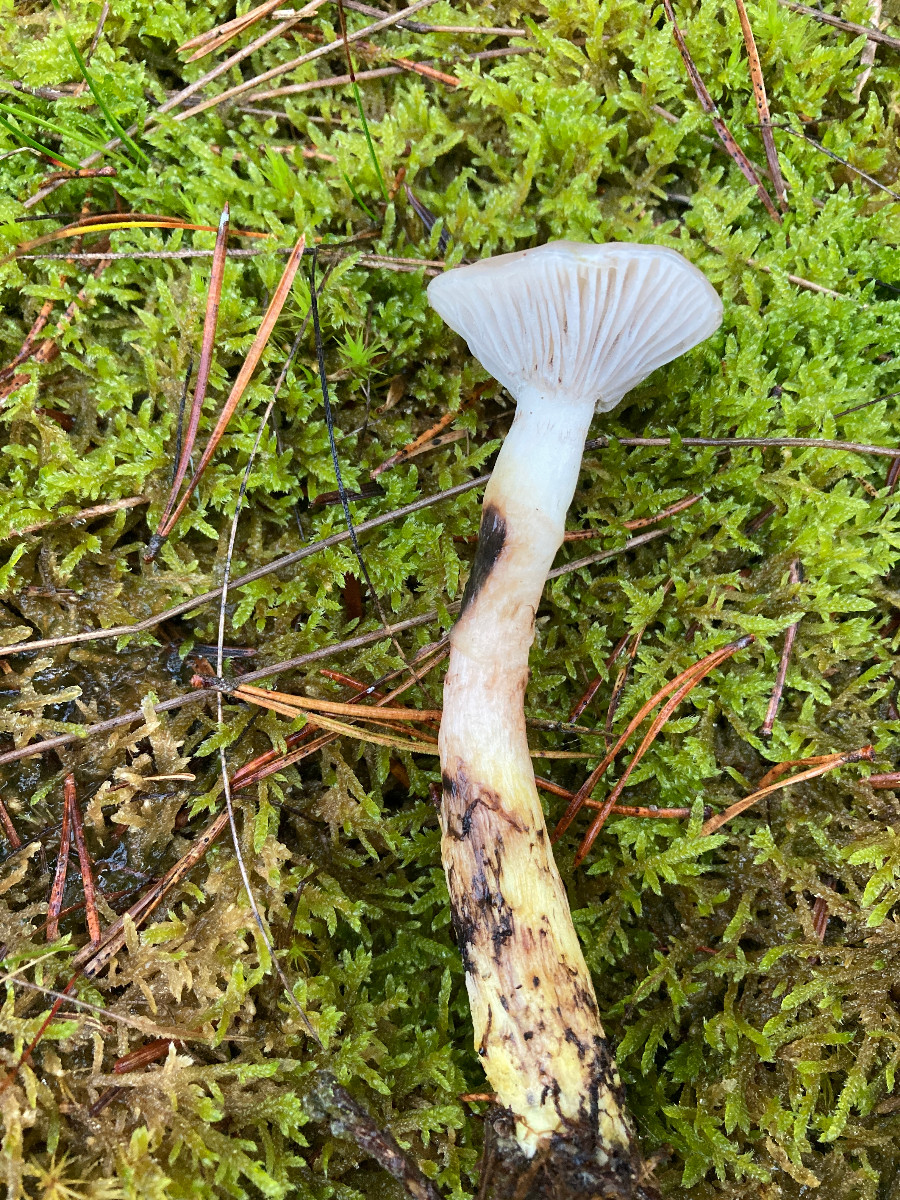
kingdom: Fungi
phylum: Basidiomycota
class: Agaricomycetes
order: Boletales
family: Gomphidiaceae
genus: Gomphidius
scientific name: Gomphidius glutinosus
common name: grå slimslør
